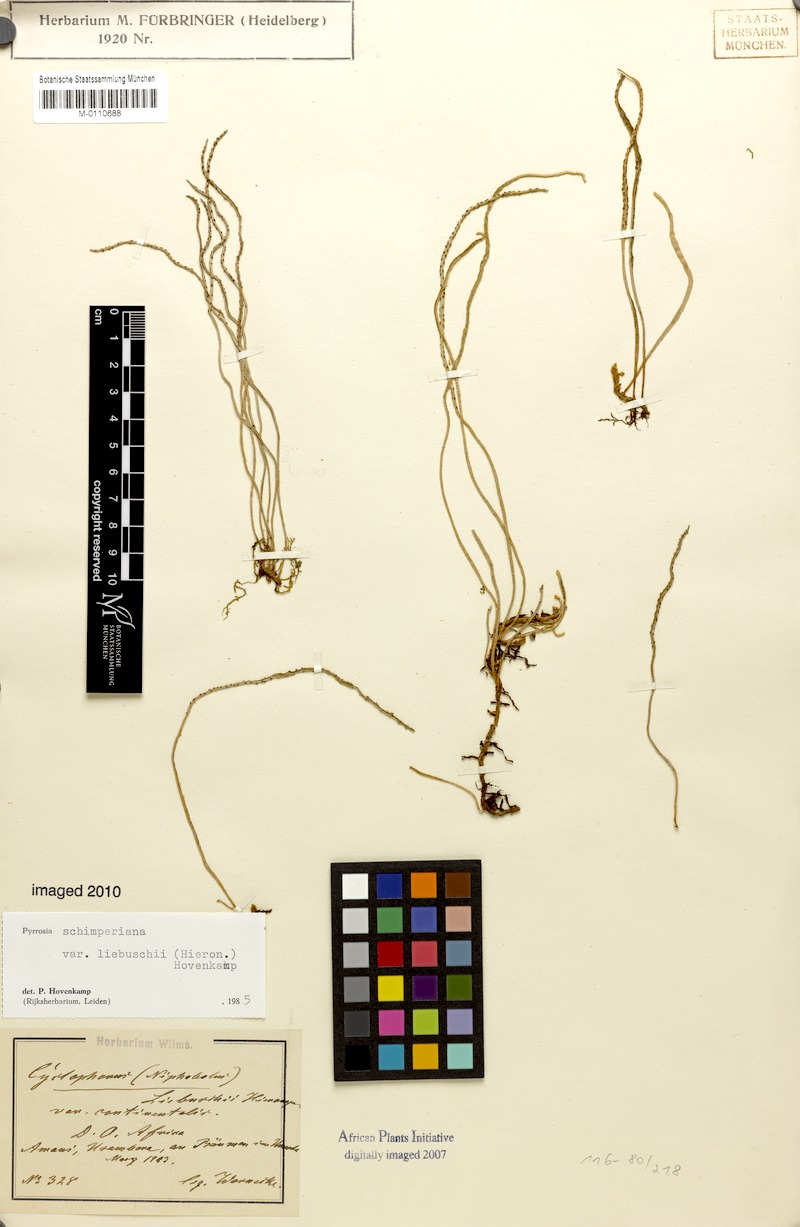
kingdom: Plantae
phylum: Tracheophyta
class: Polypodiopsida
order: Polypodiales
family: Polypodiaceae
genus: Hovenkampia
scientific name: Hovenkampia liebuschii
